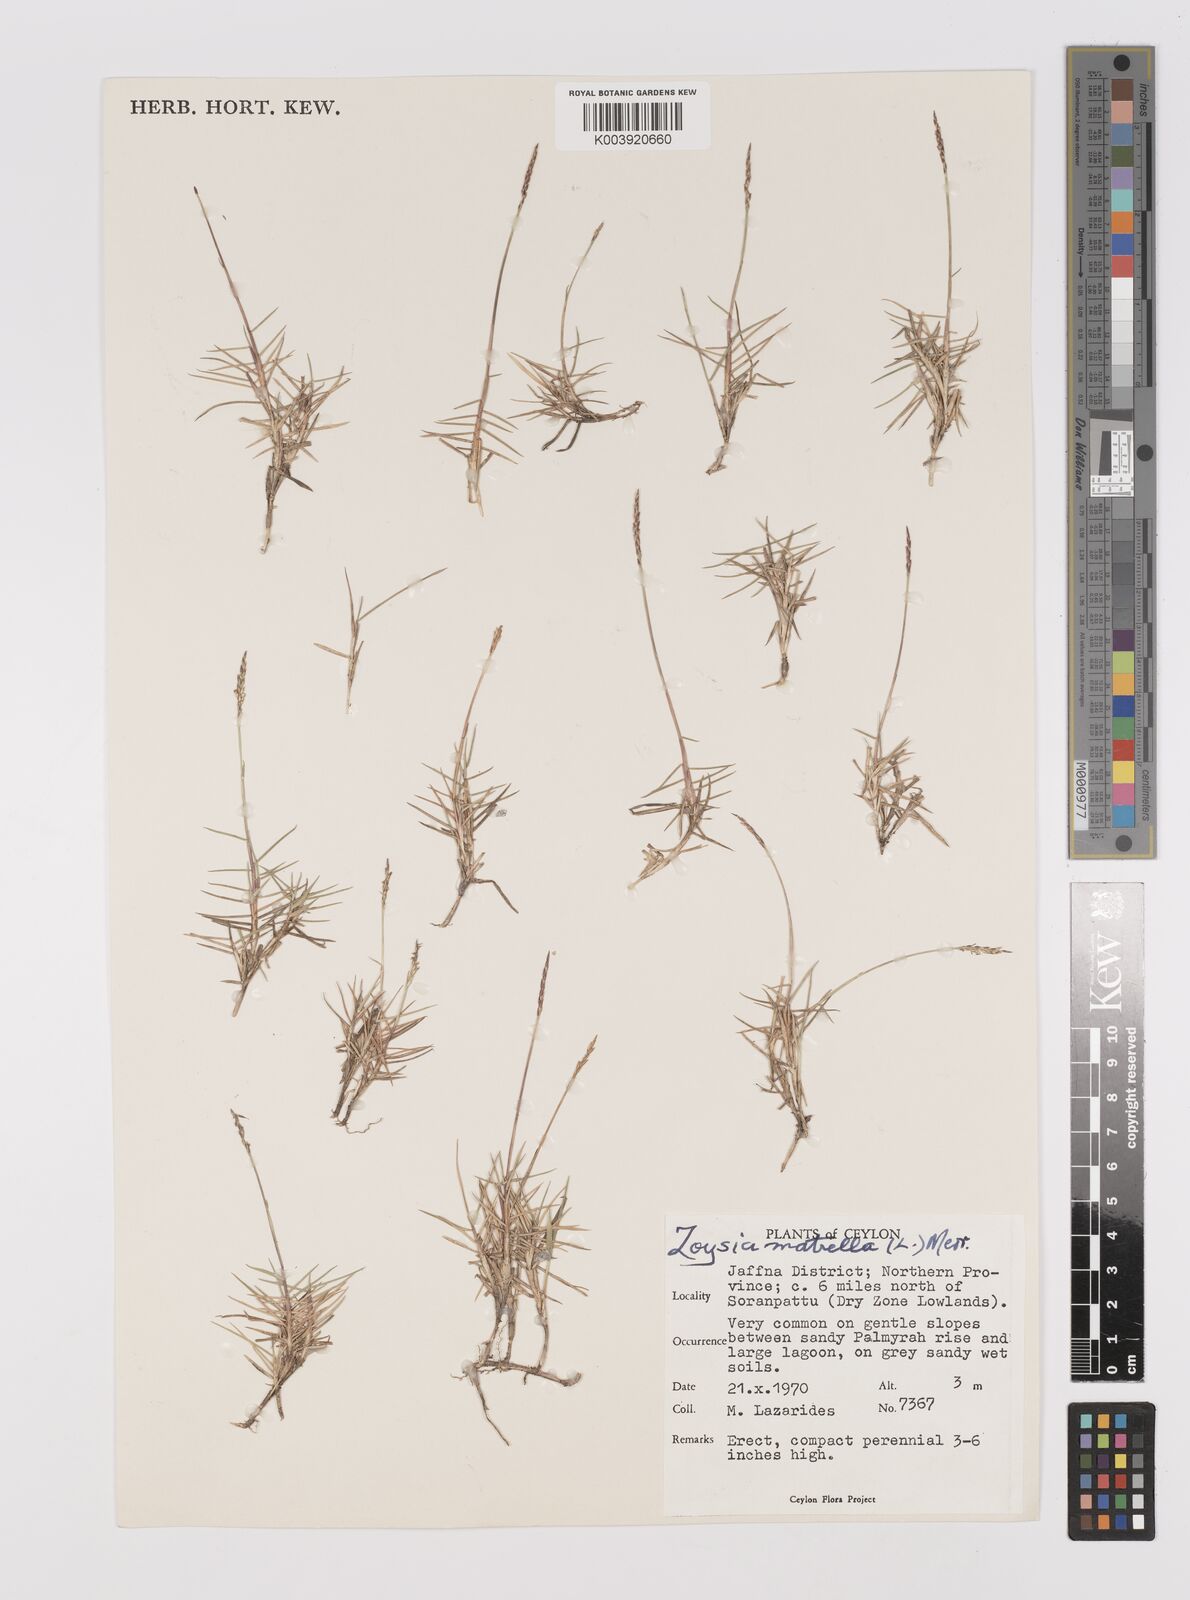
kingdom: Plantae
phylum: Tracheophyta
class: Liliopsida
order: Poales
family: Poaceae
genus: Zoysia
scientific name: Zoysia matrella
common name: Manila grass
